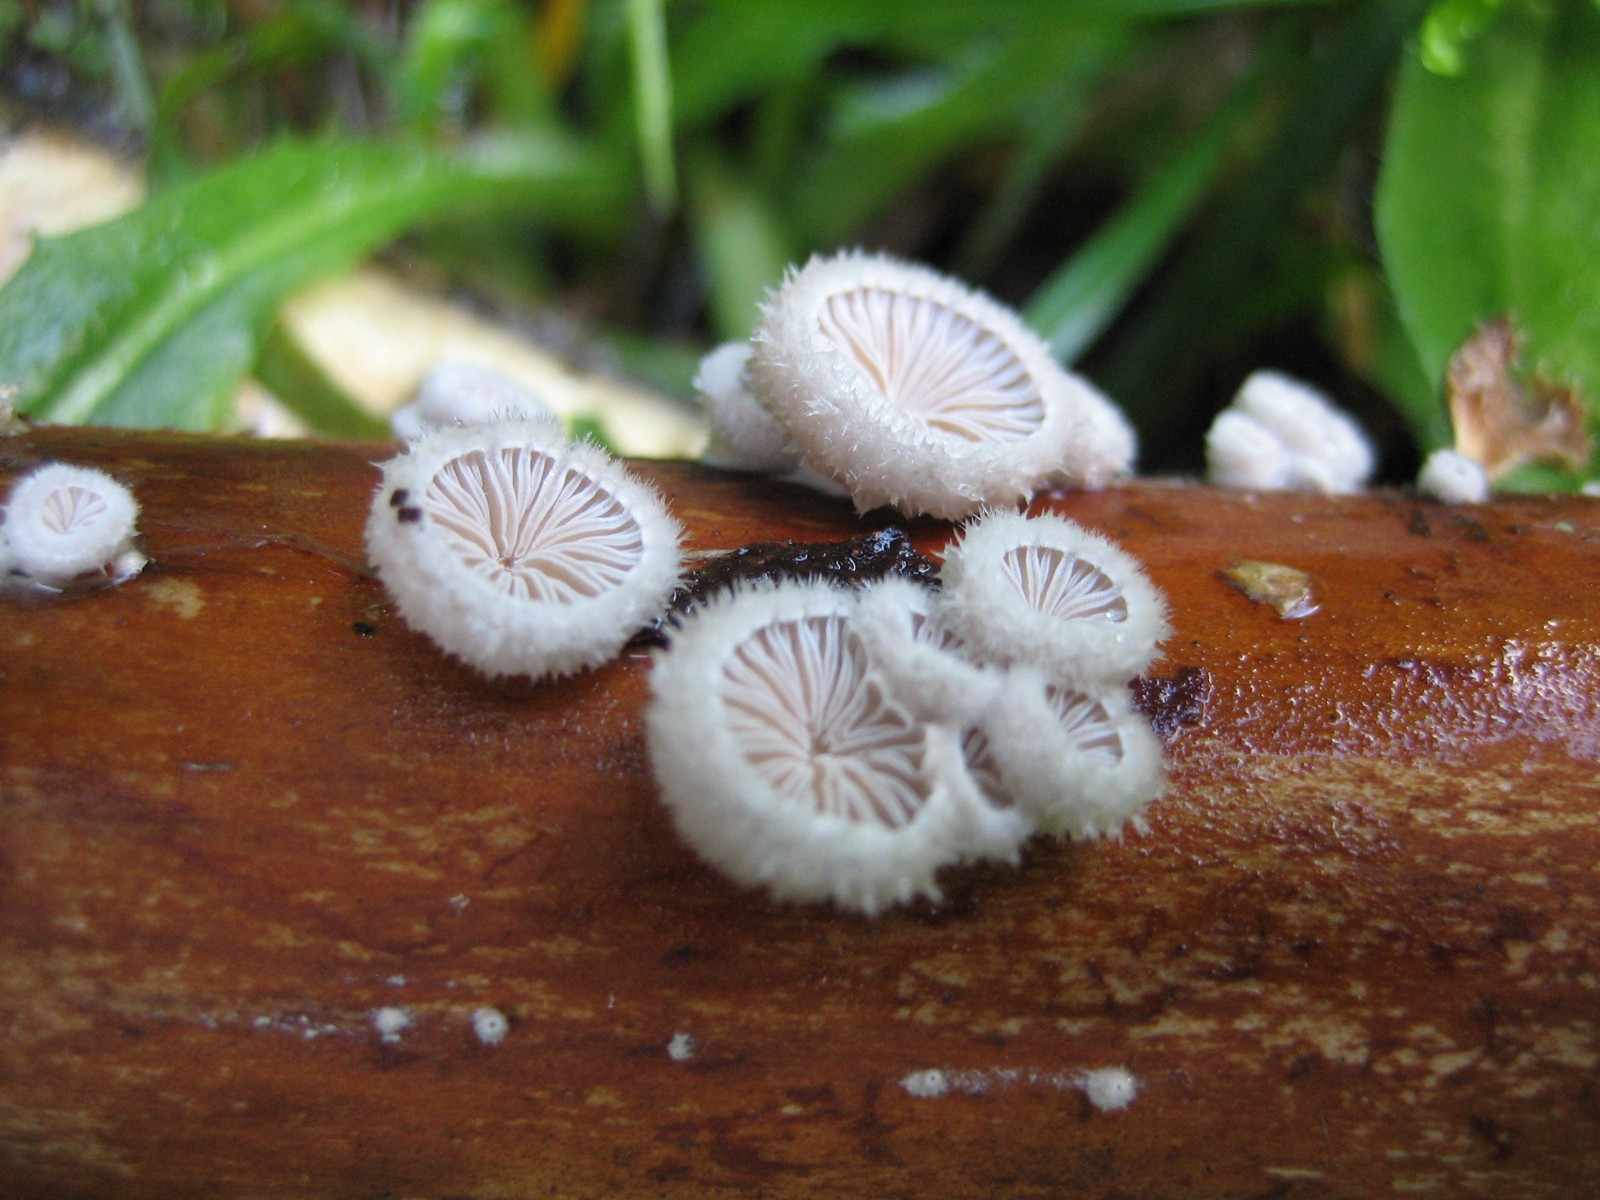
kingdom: Fungi
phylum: Basidiomycota
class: Agaricomycetes
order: Agaricales
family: Schizophyllaceae
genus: Schizophyllum
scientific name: Schizophyllum commune
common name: kløvblad
